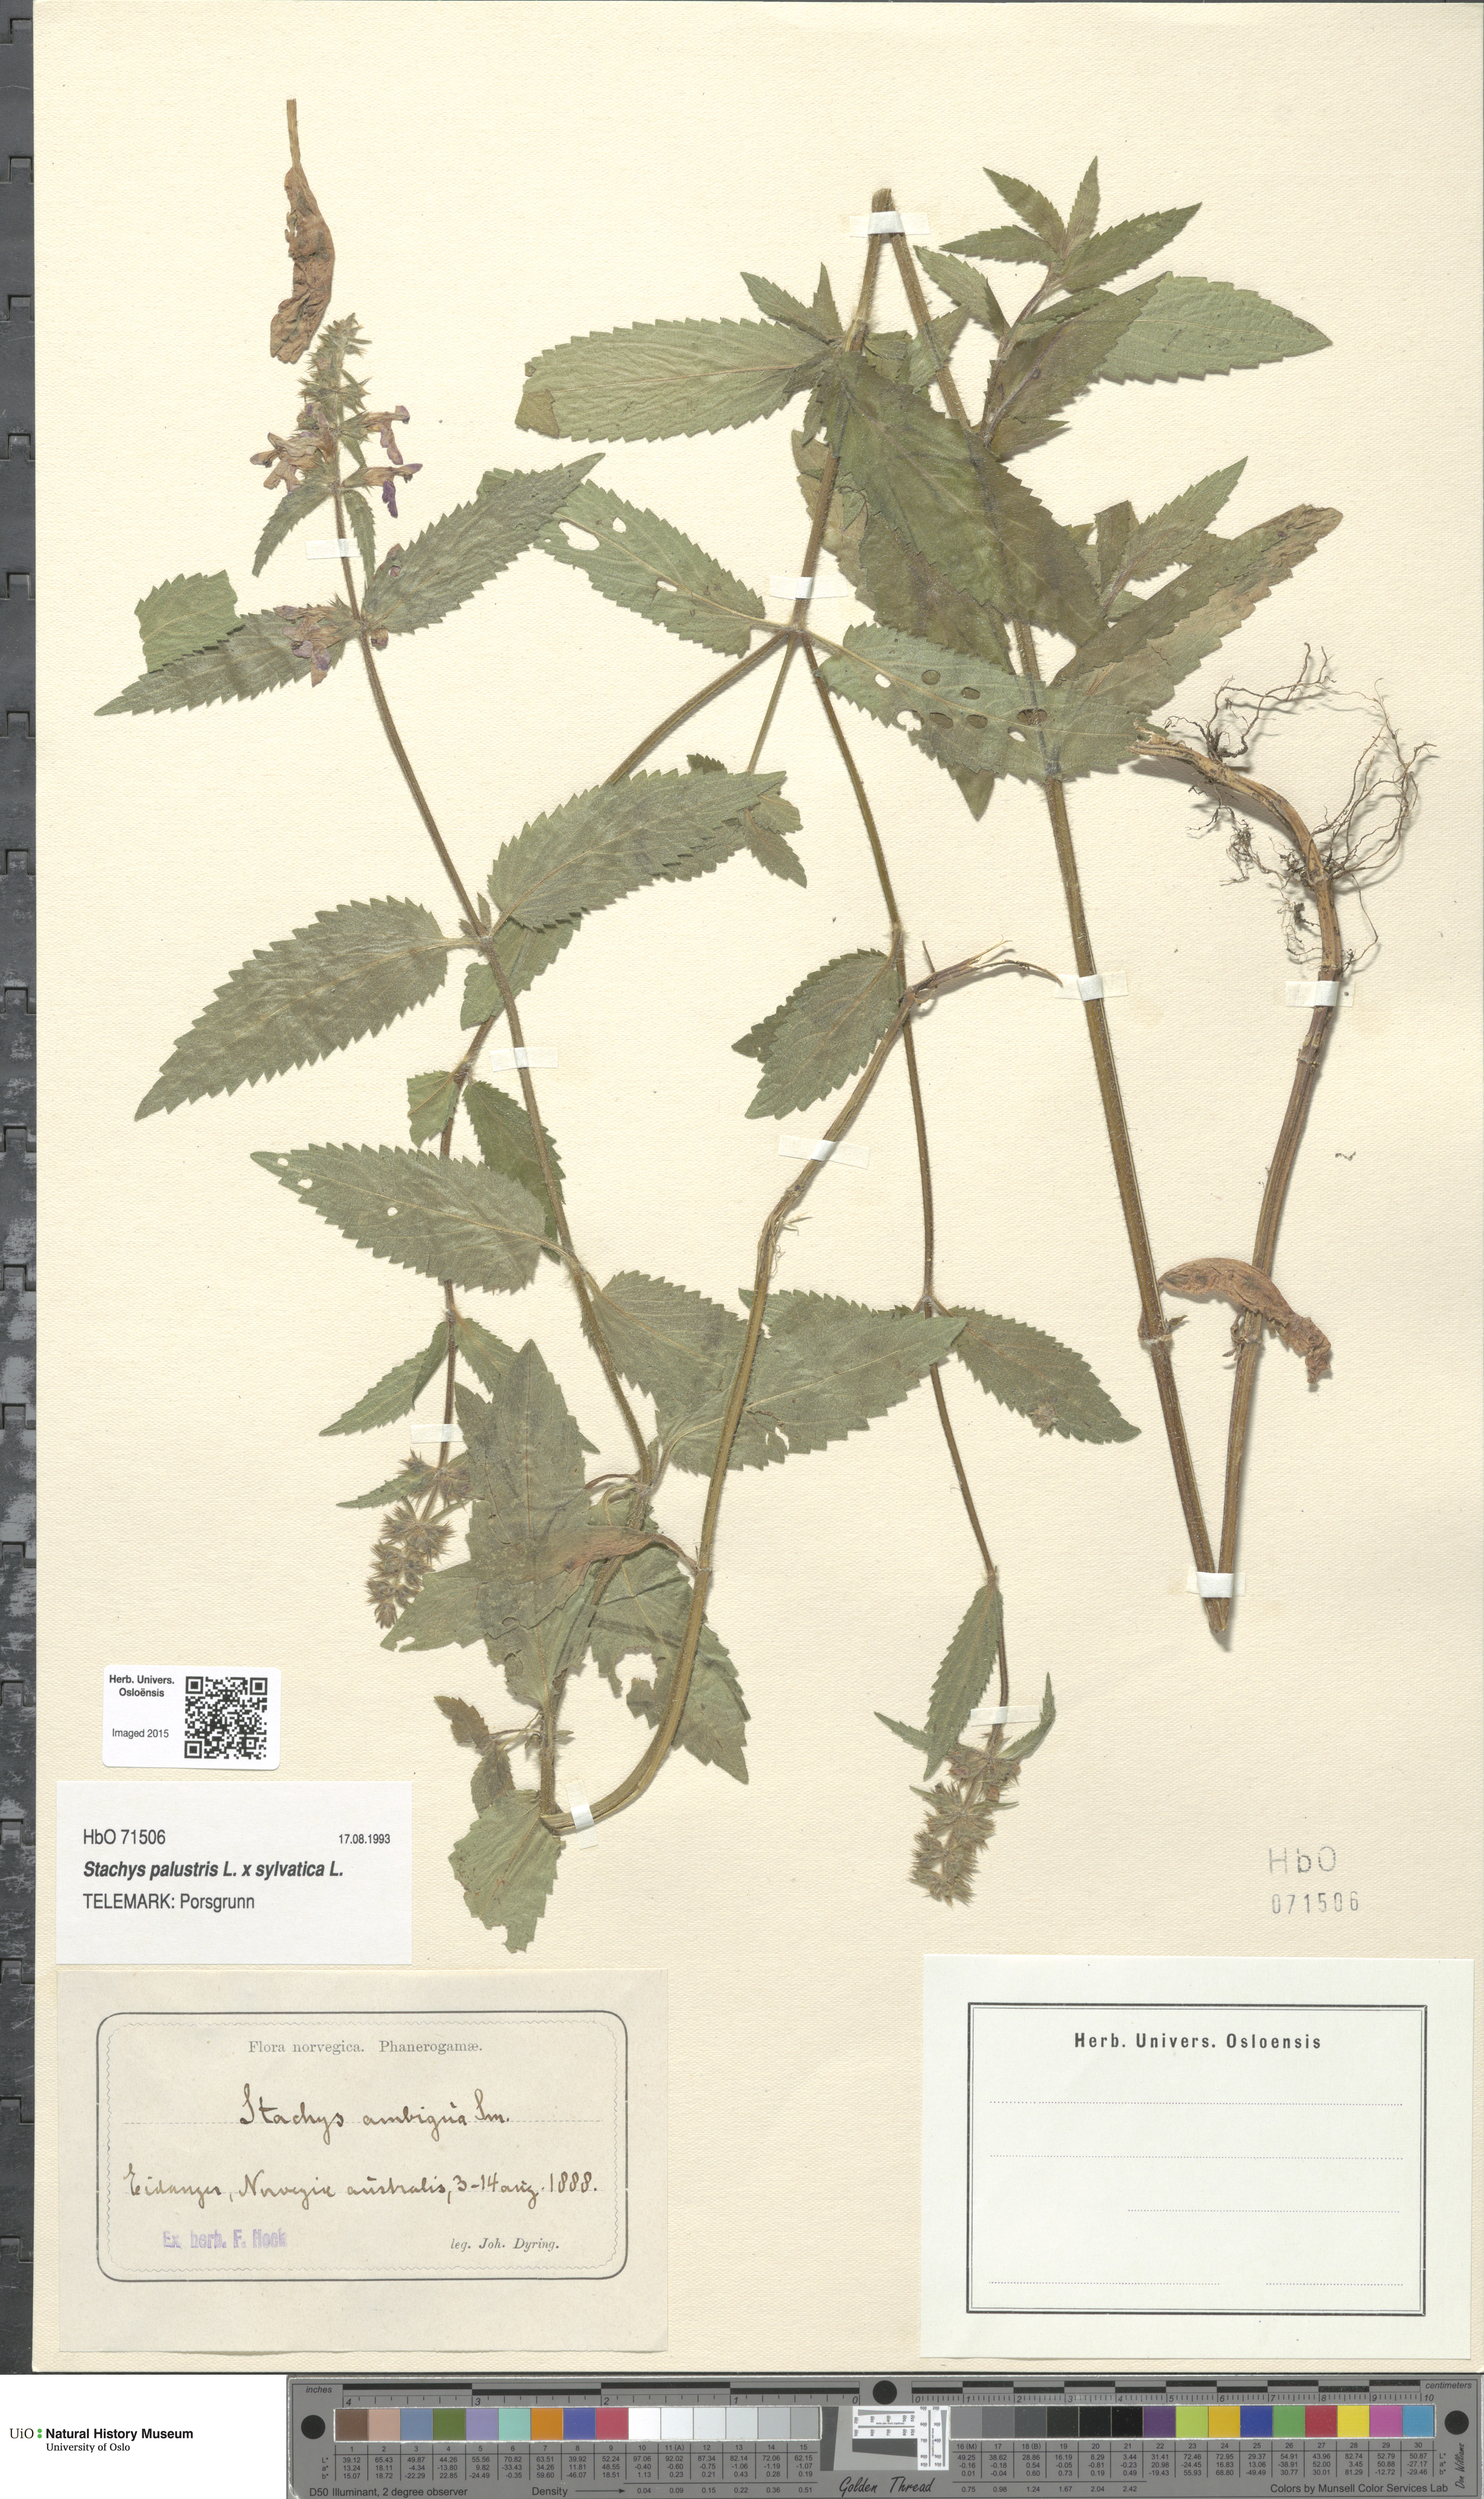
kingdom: Plantae
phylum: Tracheophyta
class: Magnoliopsida
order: Lamiales
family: Lamiaceae
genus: Stachys
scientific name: Stachys
